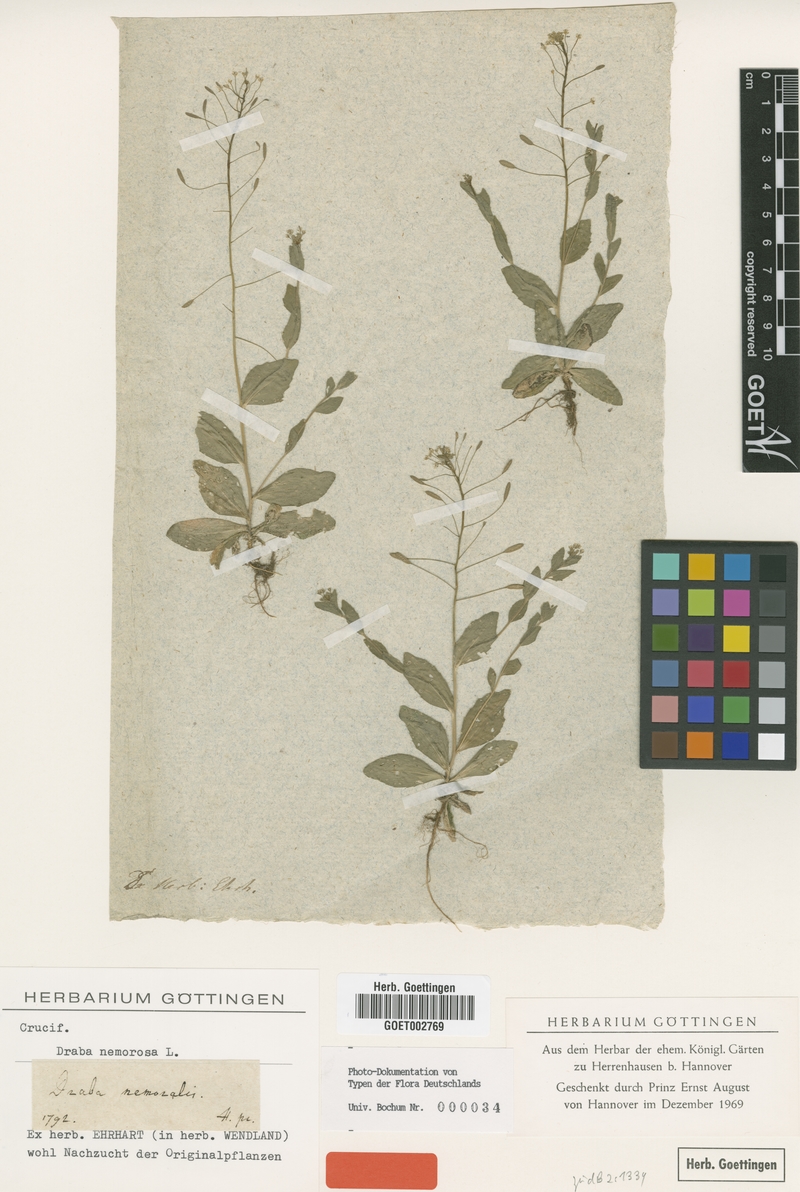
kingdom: Plantae
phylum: Tracheophyta
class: Magnoliopsida
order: Brassicales
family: Brassicaceae
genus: Draba
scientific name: Draba nemorosa
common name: Wood whitlow-grass
